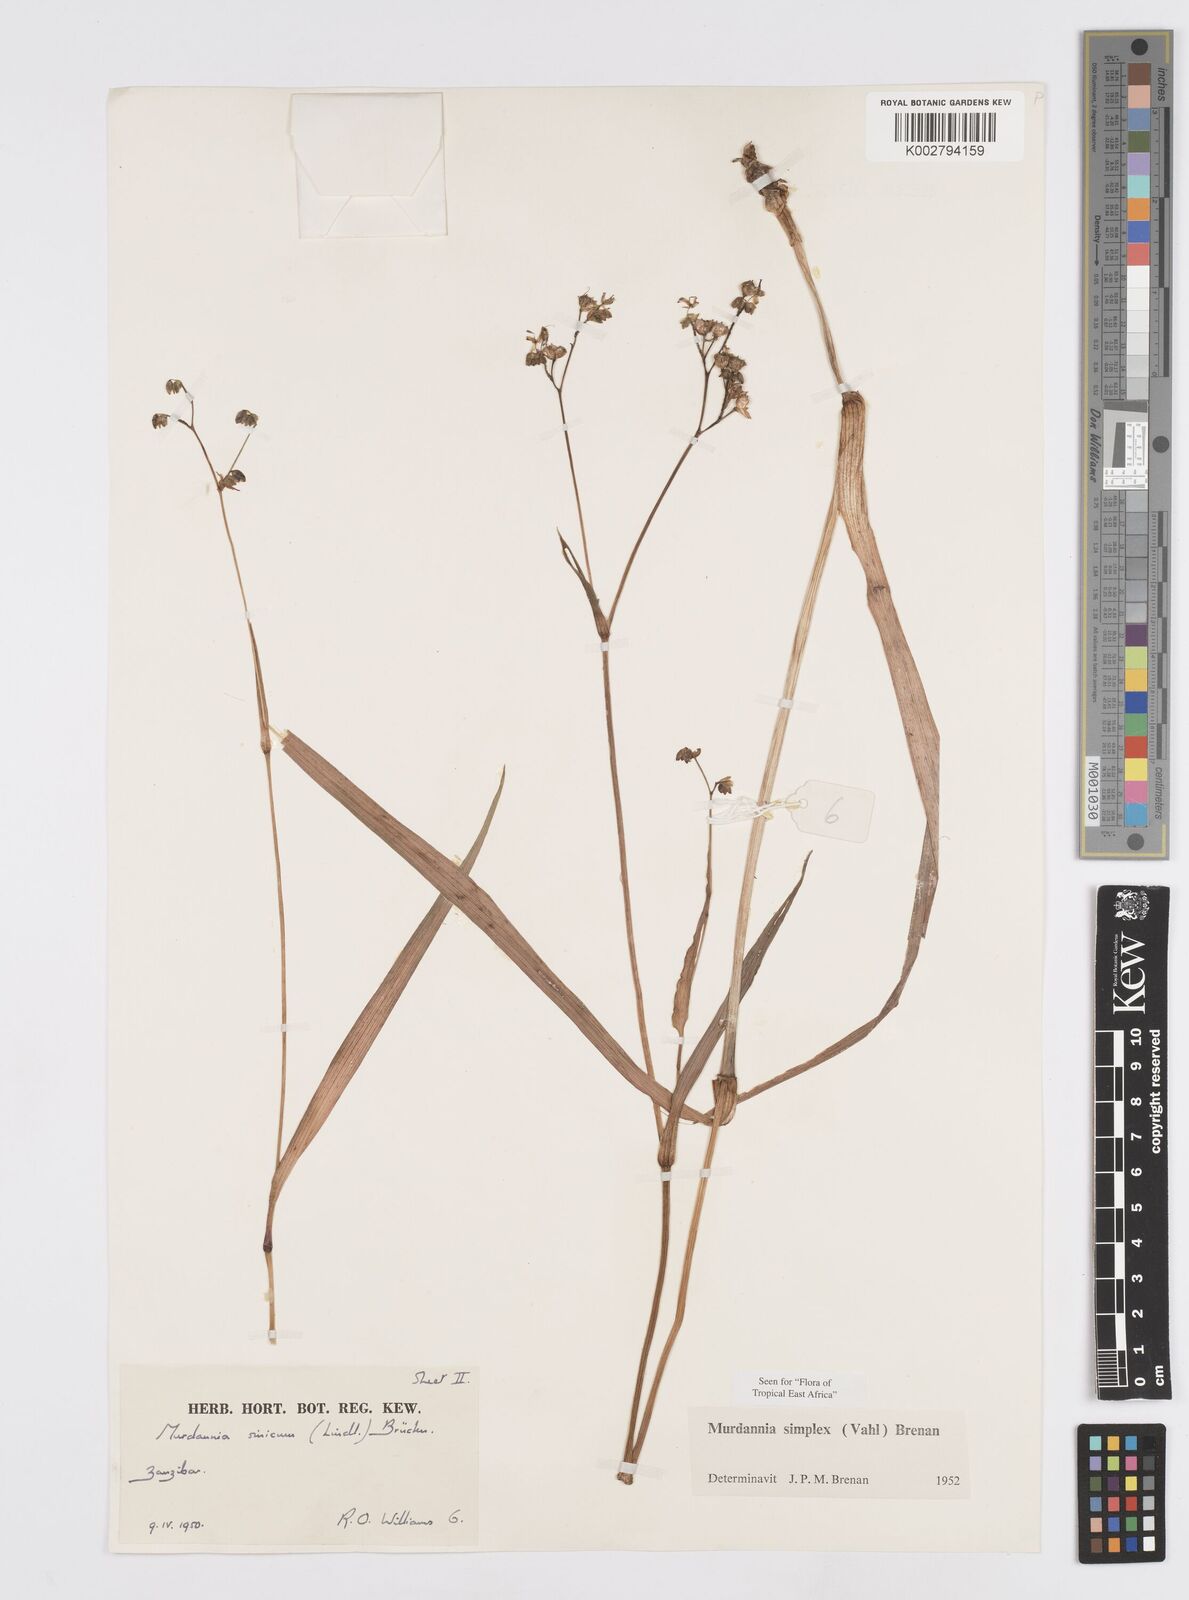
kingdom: Plantae
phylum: Tracheophyta
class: Liliopsida
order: Commelinales
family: Commelinaceae
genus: Murdannia
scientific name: Murdannia simplex
